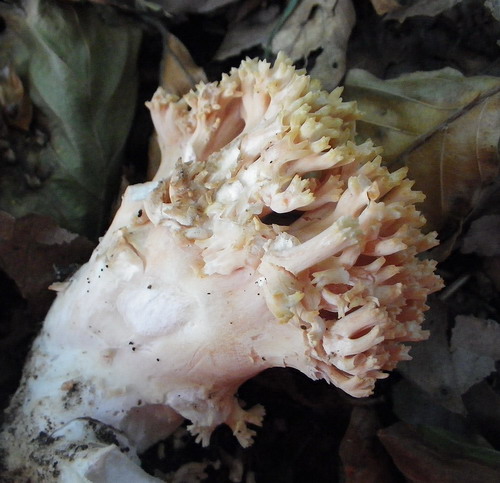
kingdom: Fungi
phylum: Basidiomycota
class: Agaricomycetes
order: Gomphales
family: Gomphaceae
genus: Ramaria
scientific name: Ramaria fagetorum
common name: abrikos-koralsvamp
